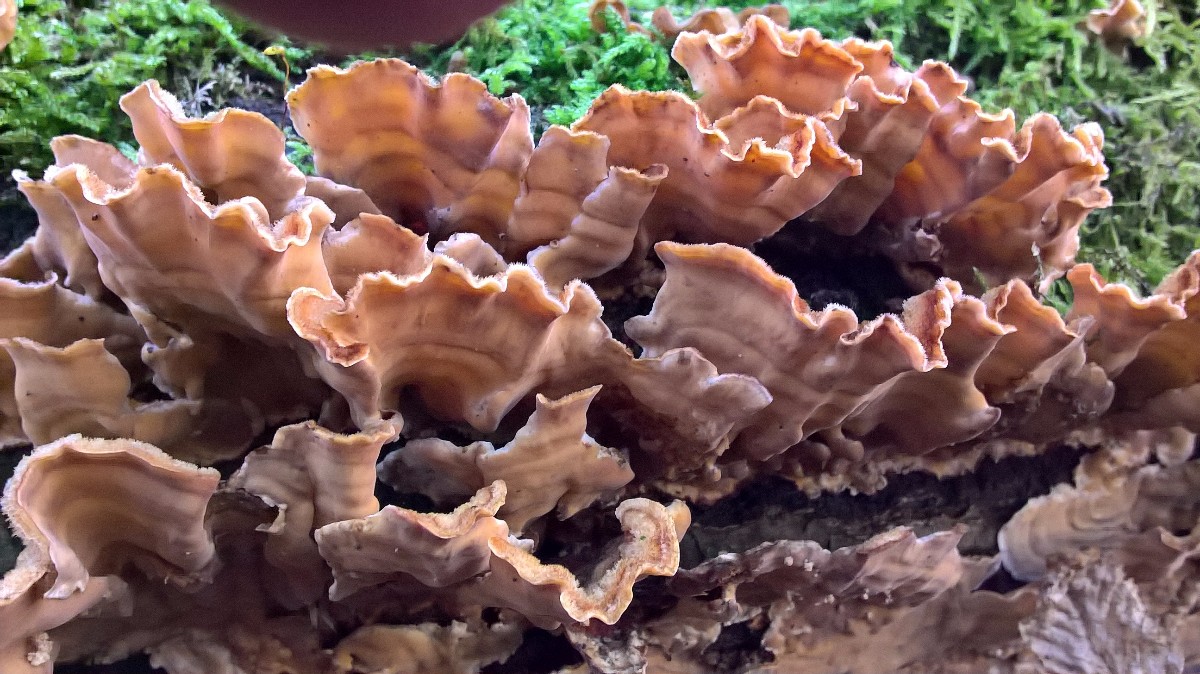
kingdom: Fungi
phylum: Basidiomycota
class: Agaricomycetes
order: Russulales
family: Stereaceae
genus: Stereum
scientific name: Stereum hirsutum
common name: håret lædersvamp
